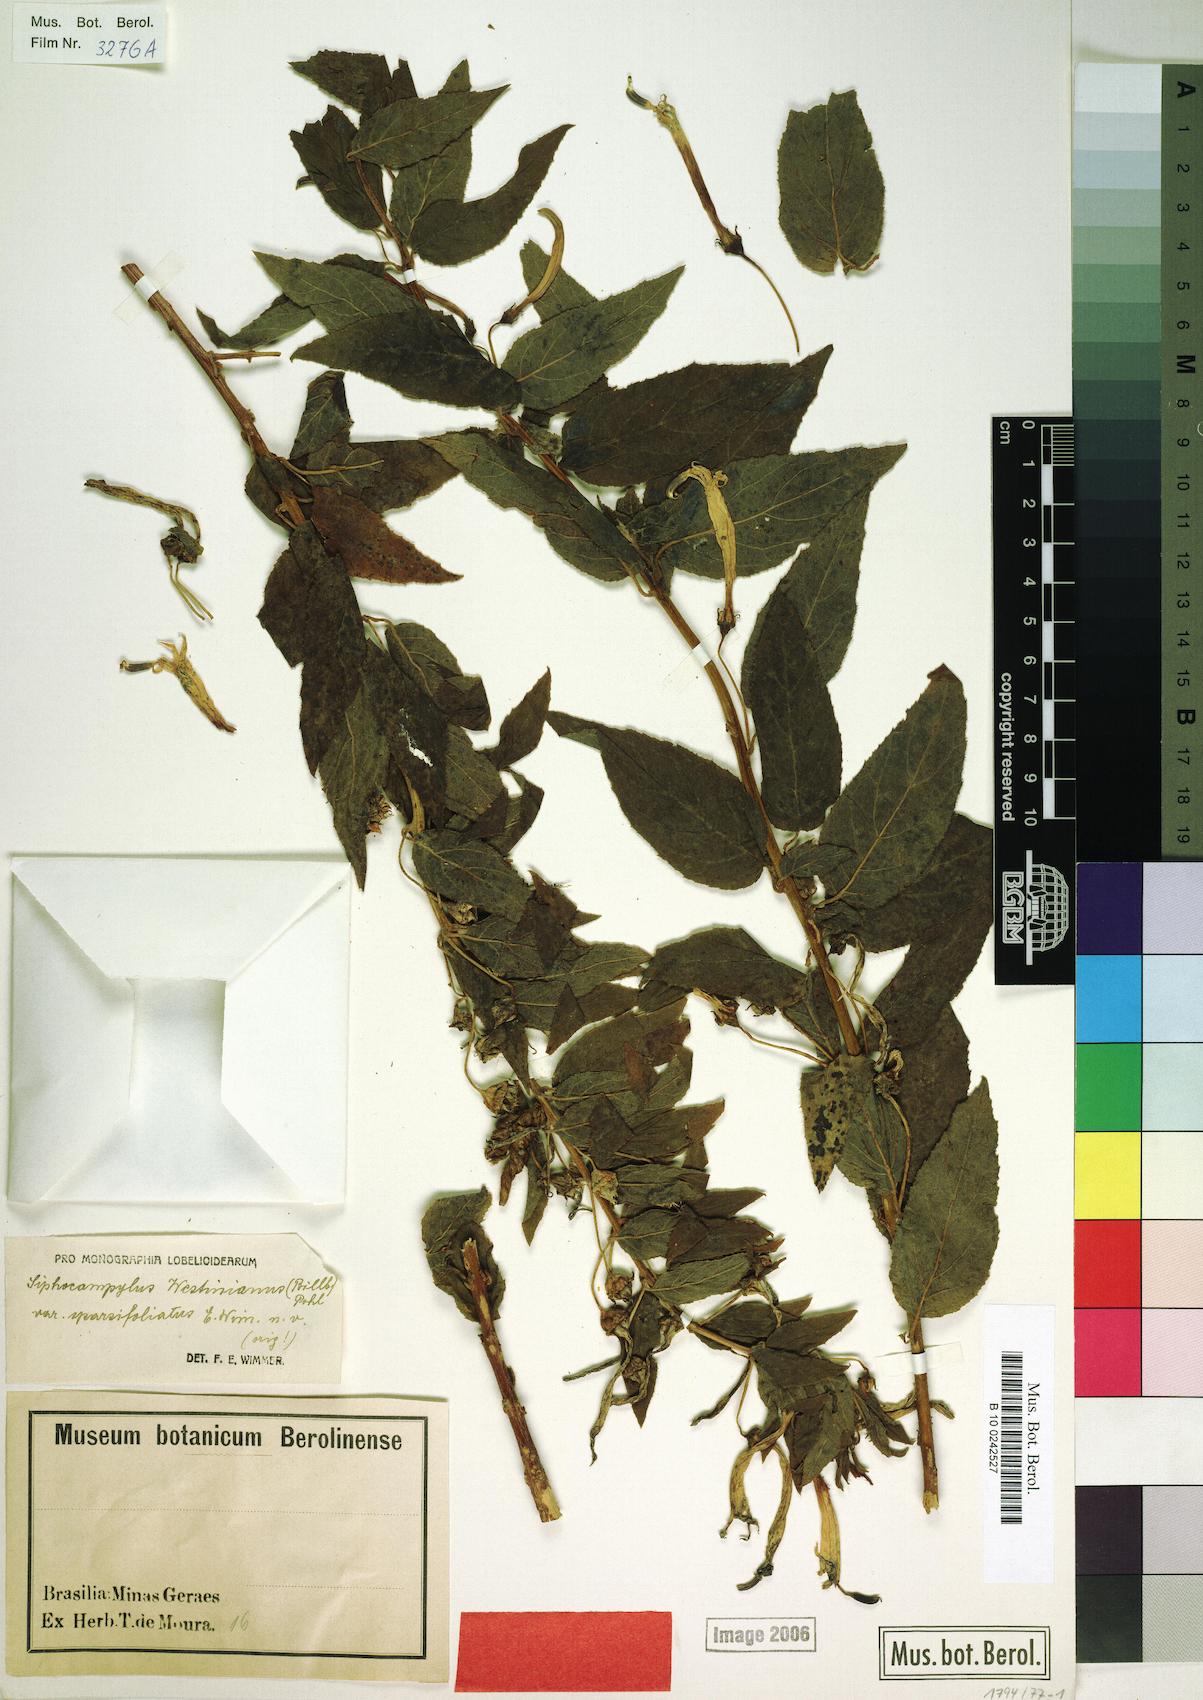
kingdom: Plantae
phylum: Tracheophyta
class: Magnoliopsida
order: Asterales
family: Campanulaceae
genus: Siphocampylus
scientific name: Siphocampylus westinianus
